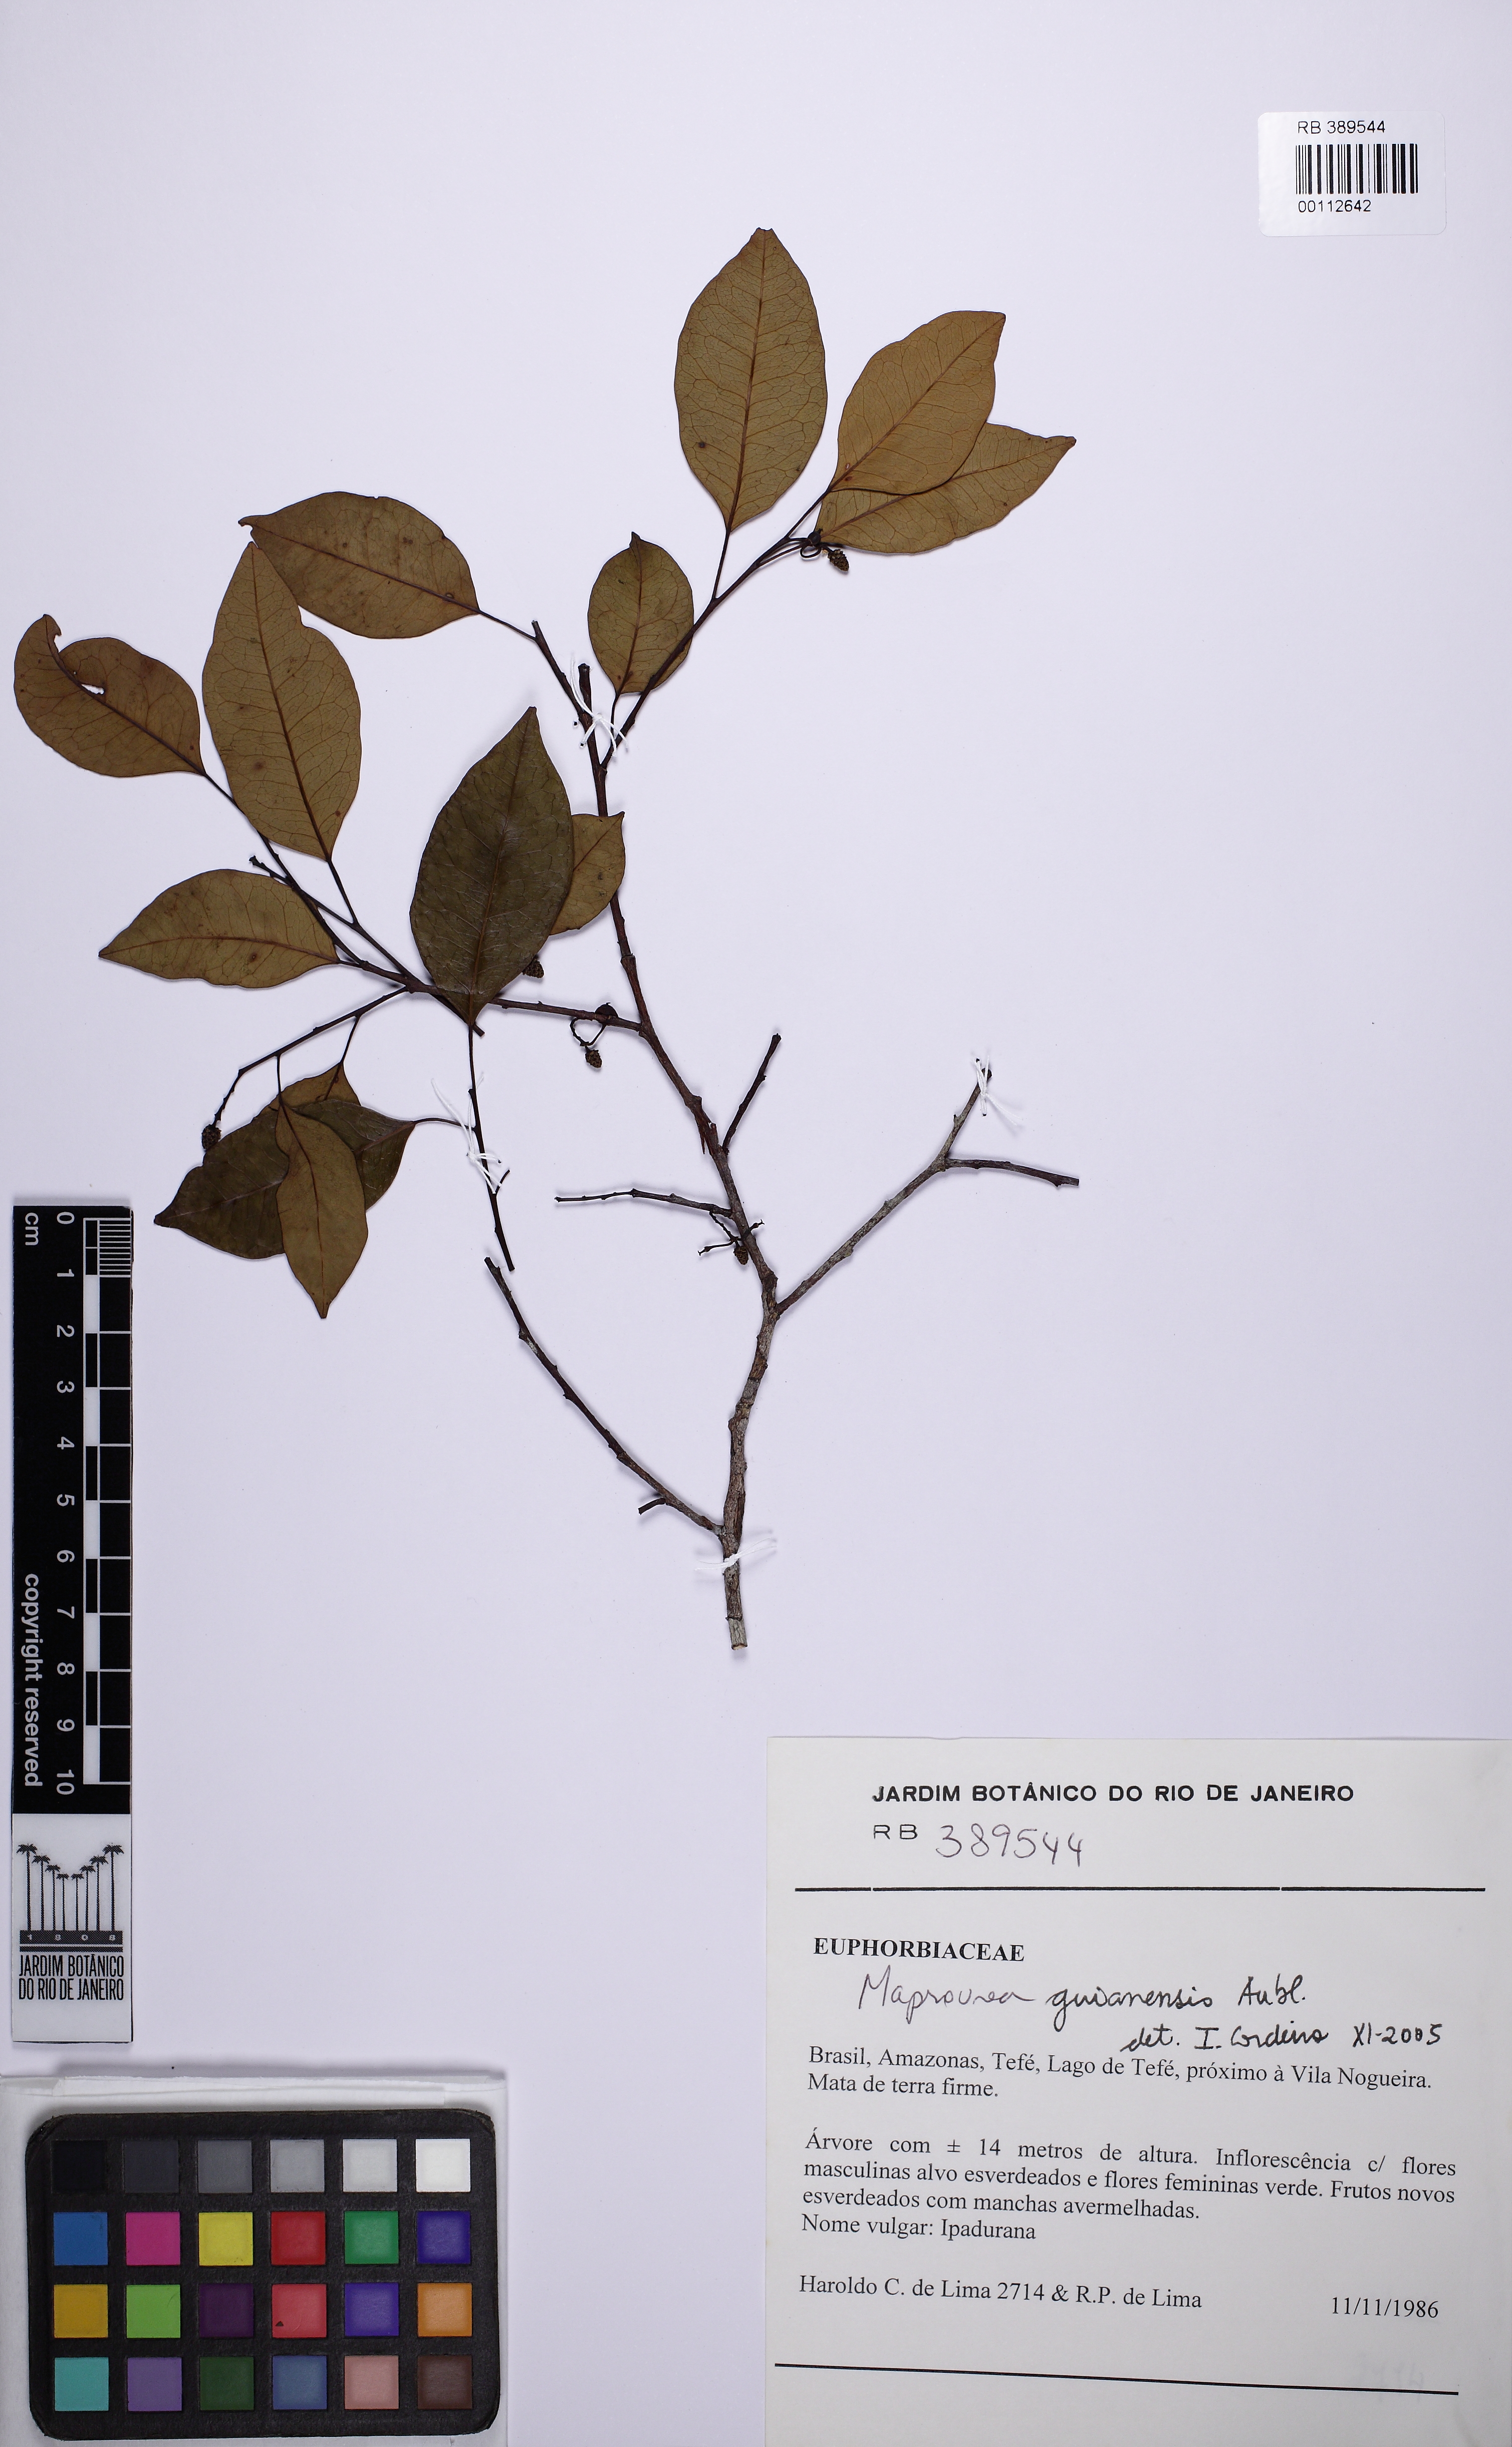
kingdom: Plantae
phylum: Tracheophyta
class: Magnoliopsida
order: Malpighiales
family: Euphorbiaceae
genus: Maprounea
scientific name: Maprounea africana
